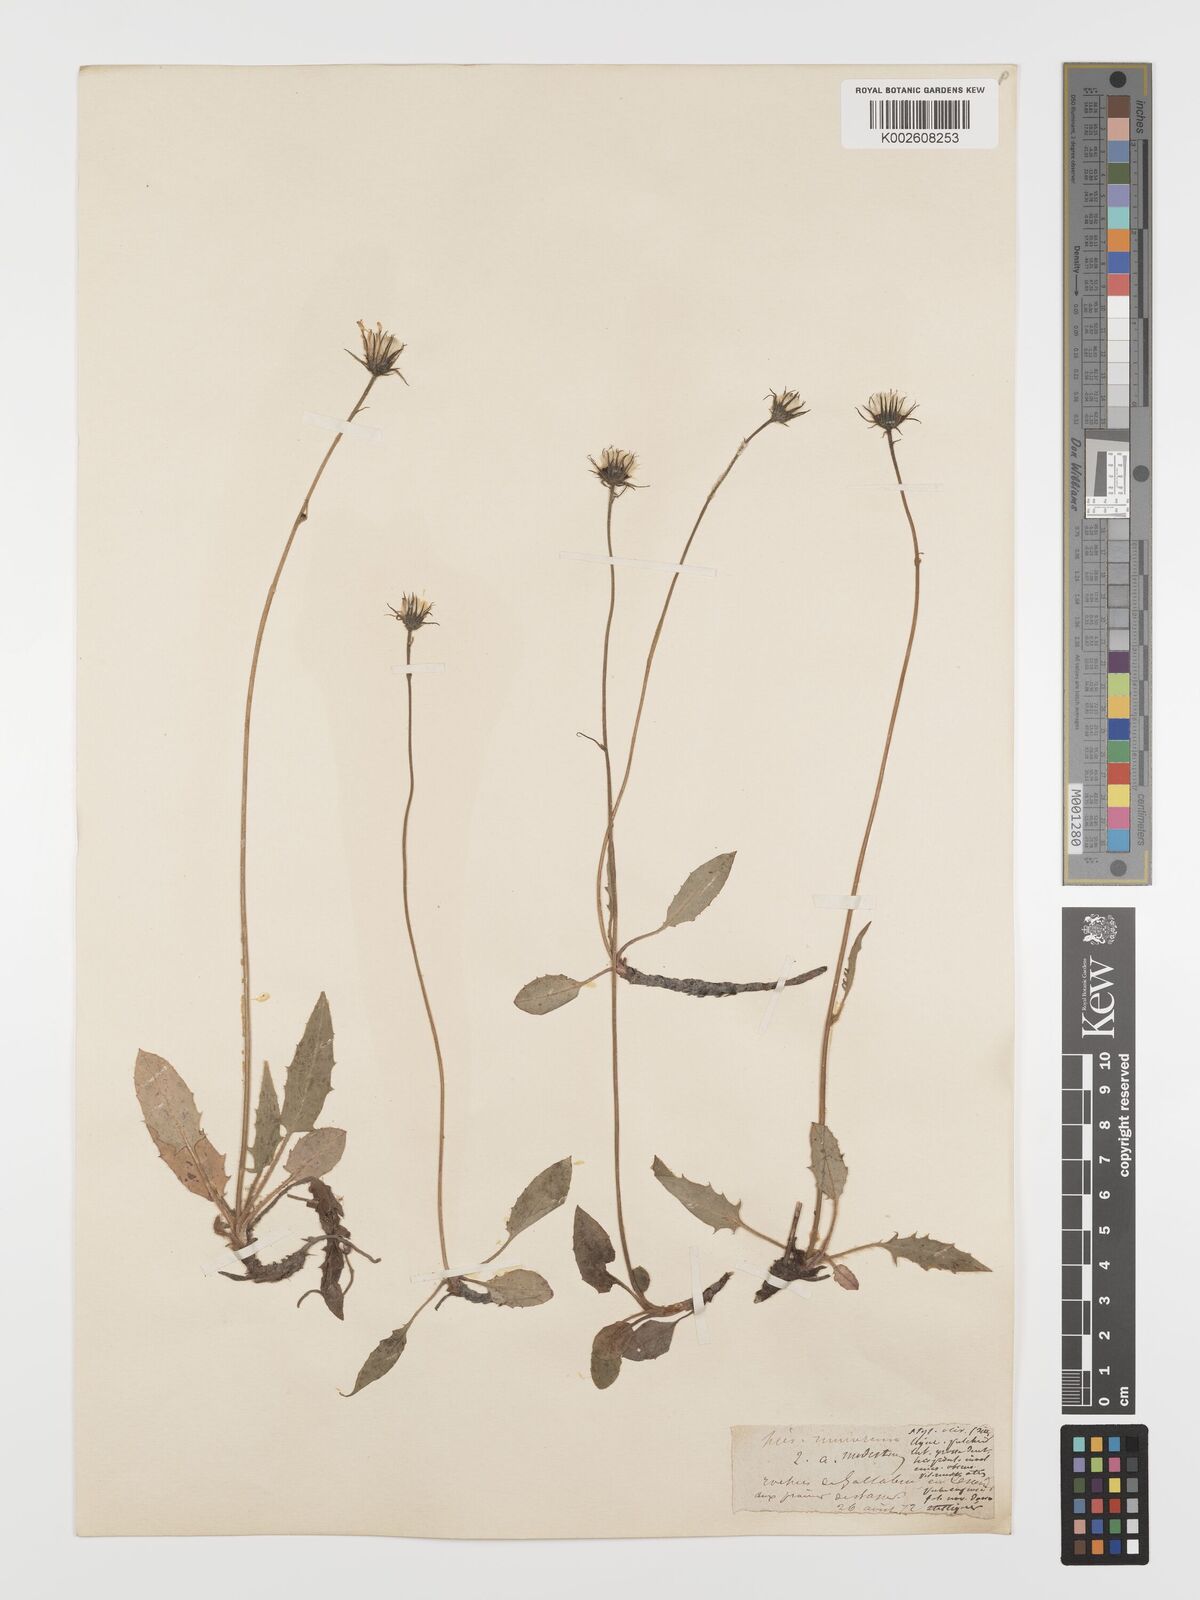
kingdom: Plantae
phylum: Tracheophyta
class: Magnoliopsida
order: Asterales
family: Asteraceae
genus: Hieracium
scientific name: Hieracium
